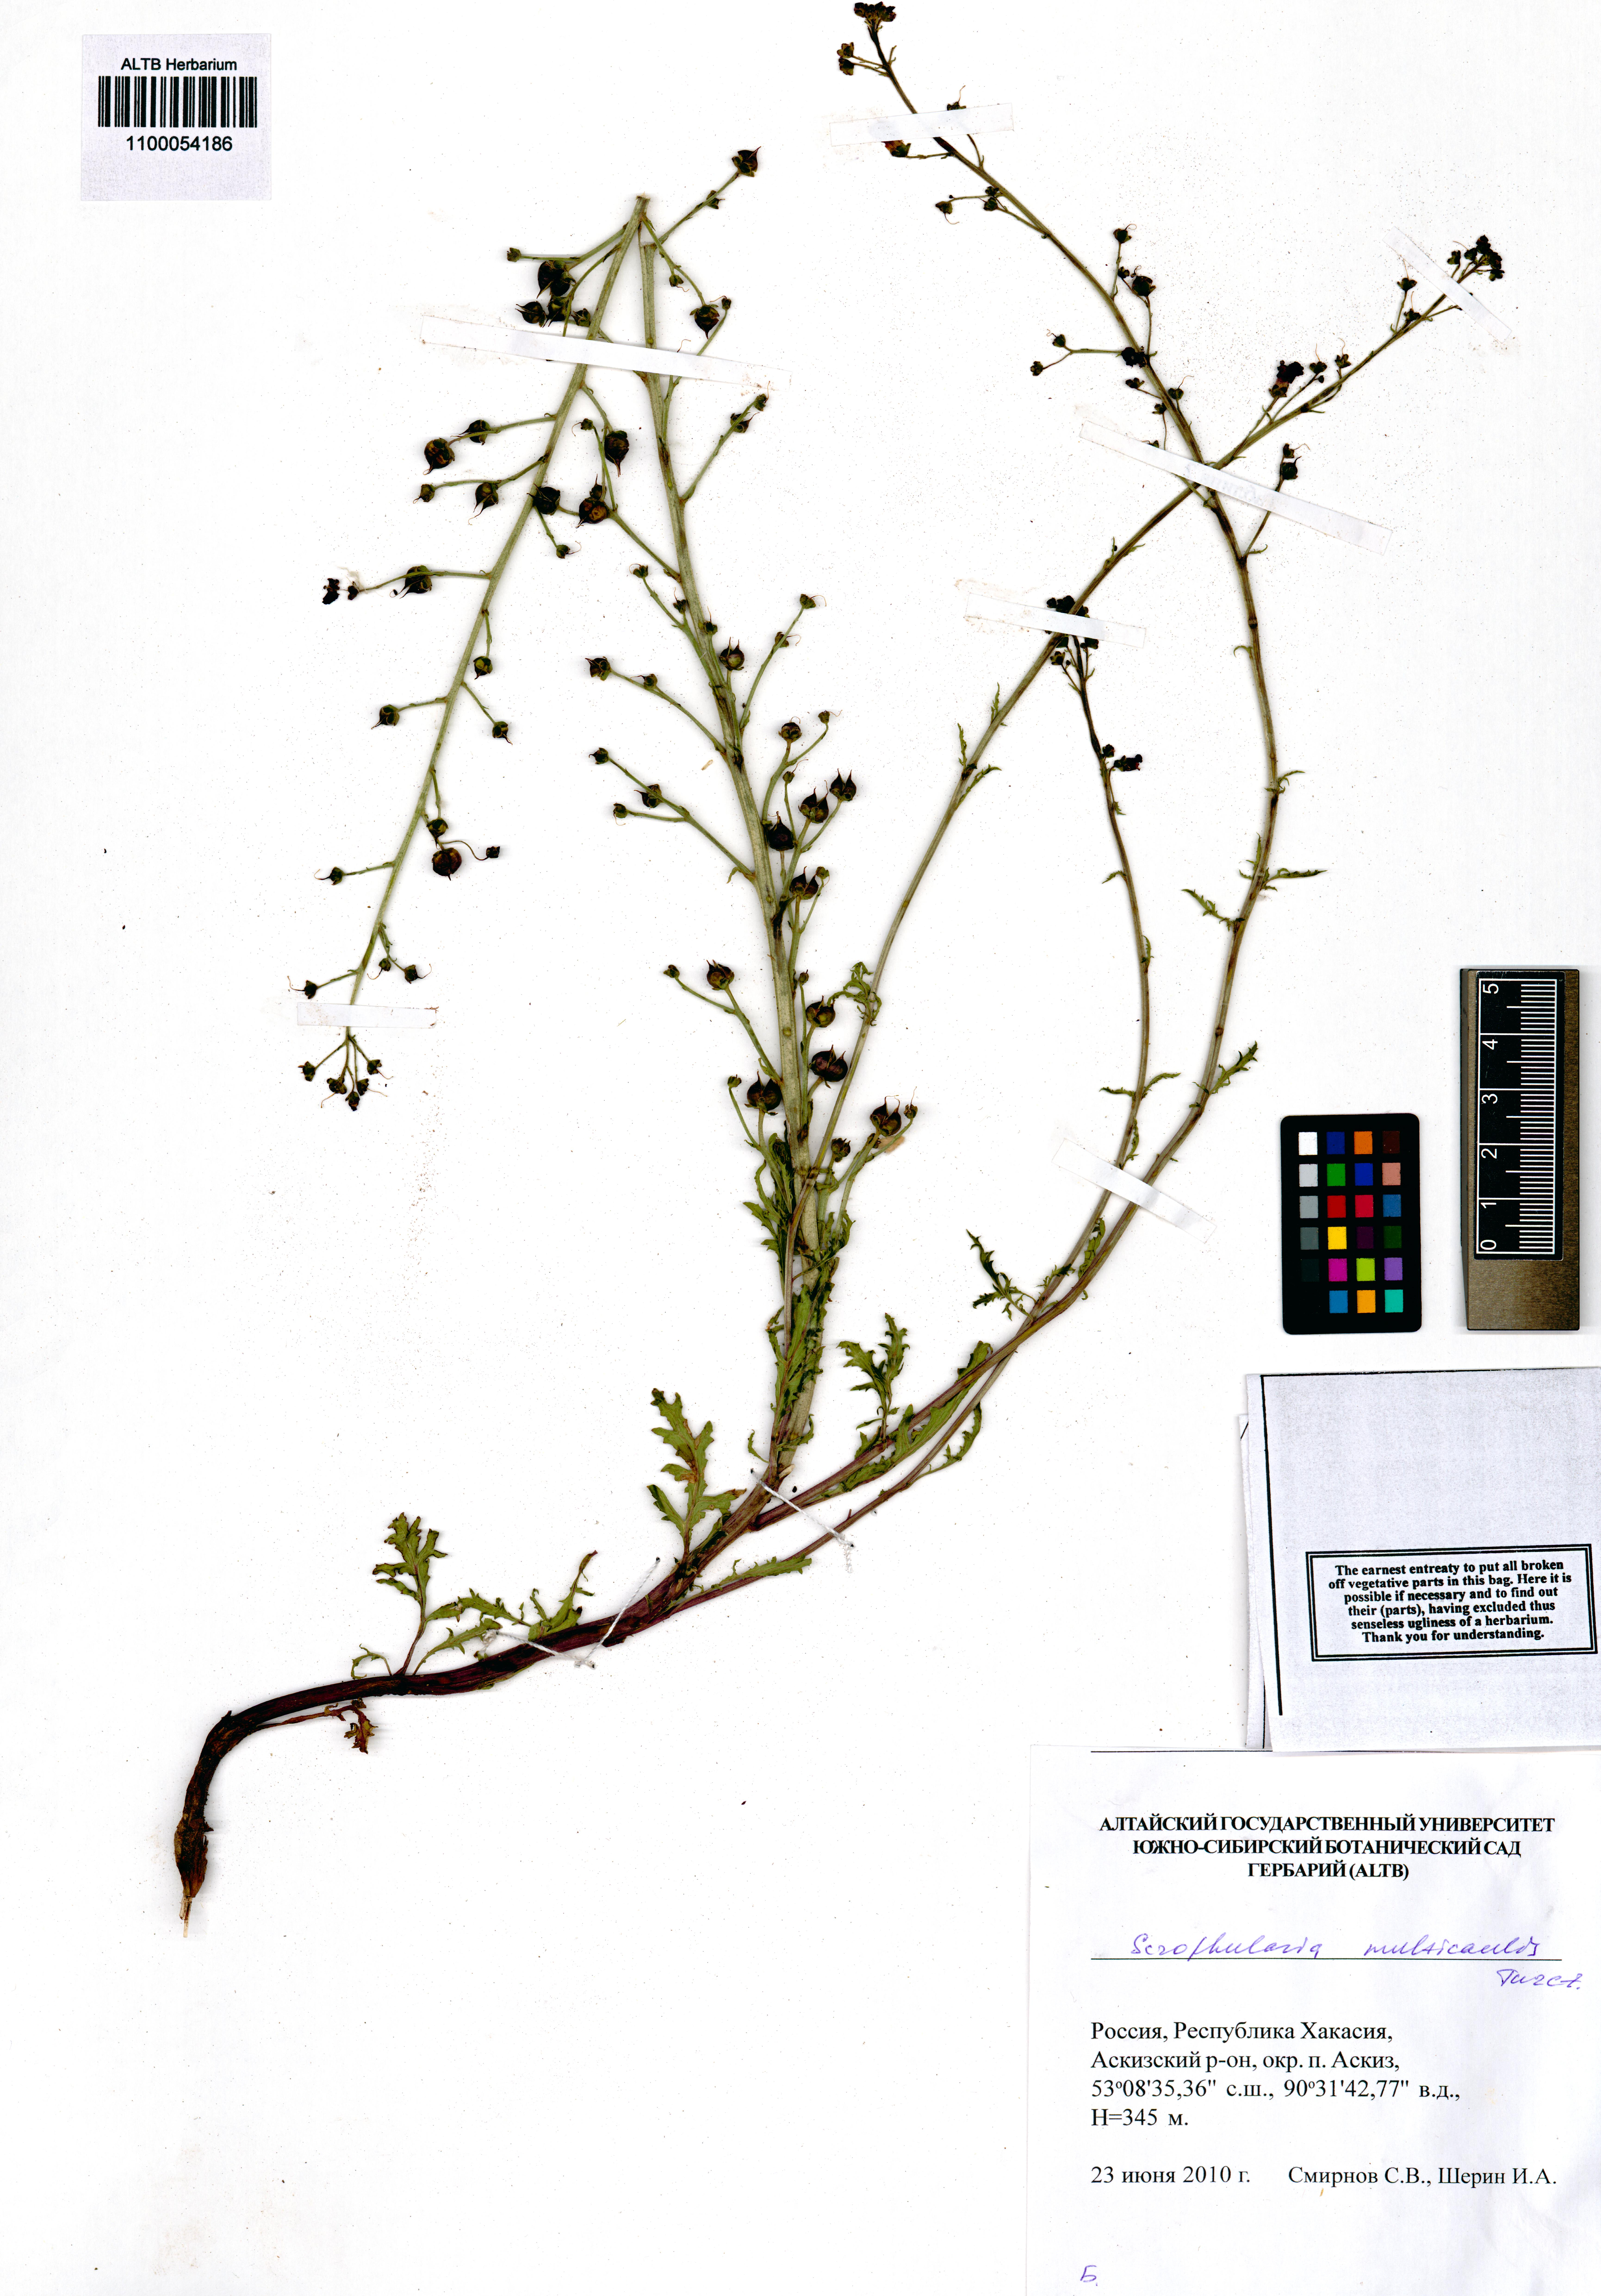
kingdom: Plantae
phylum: Tracheophyta
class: Magnoliopsida
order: Lamiales
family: Scrophulariaceae
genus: Scrophularia
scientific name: Scrophularia multicaulis
